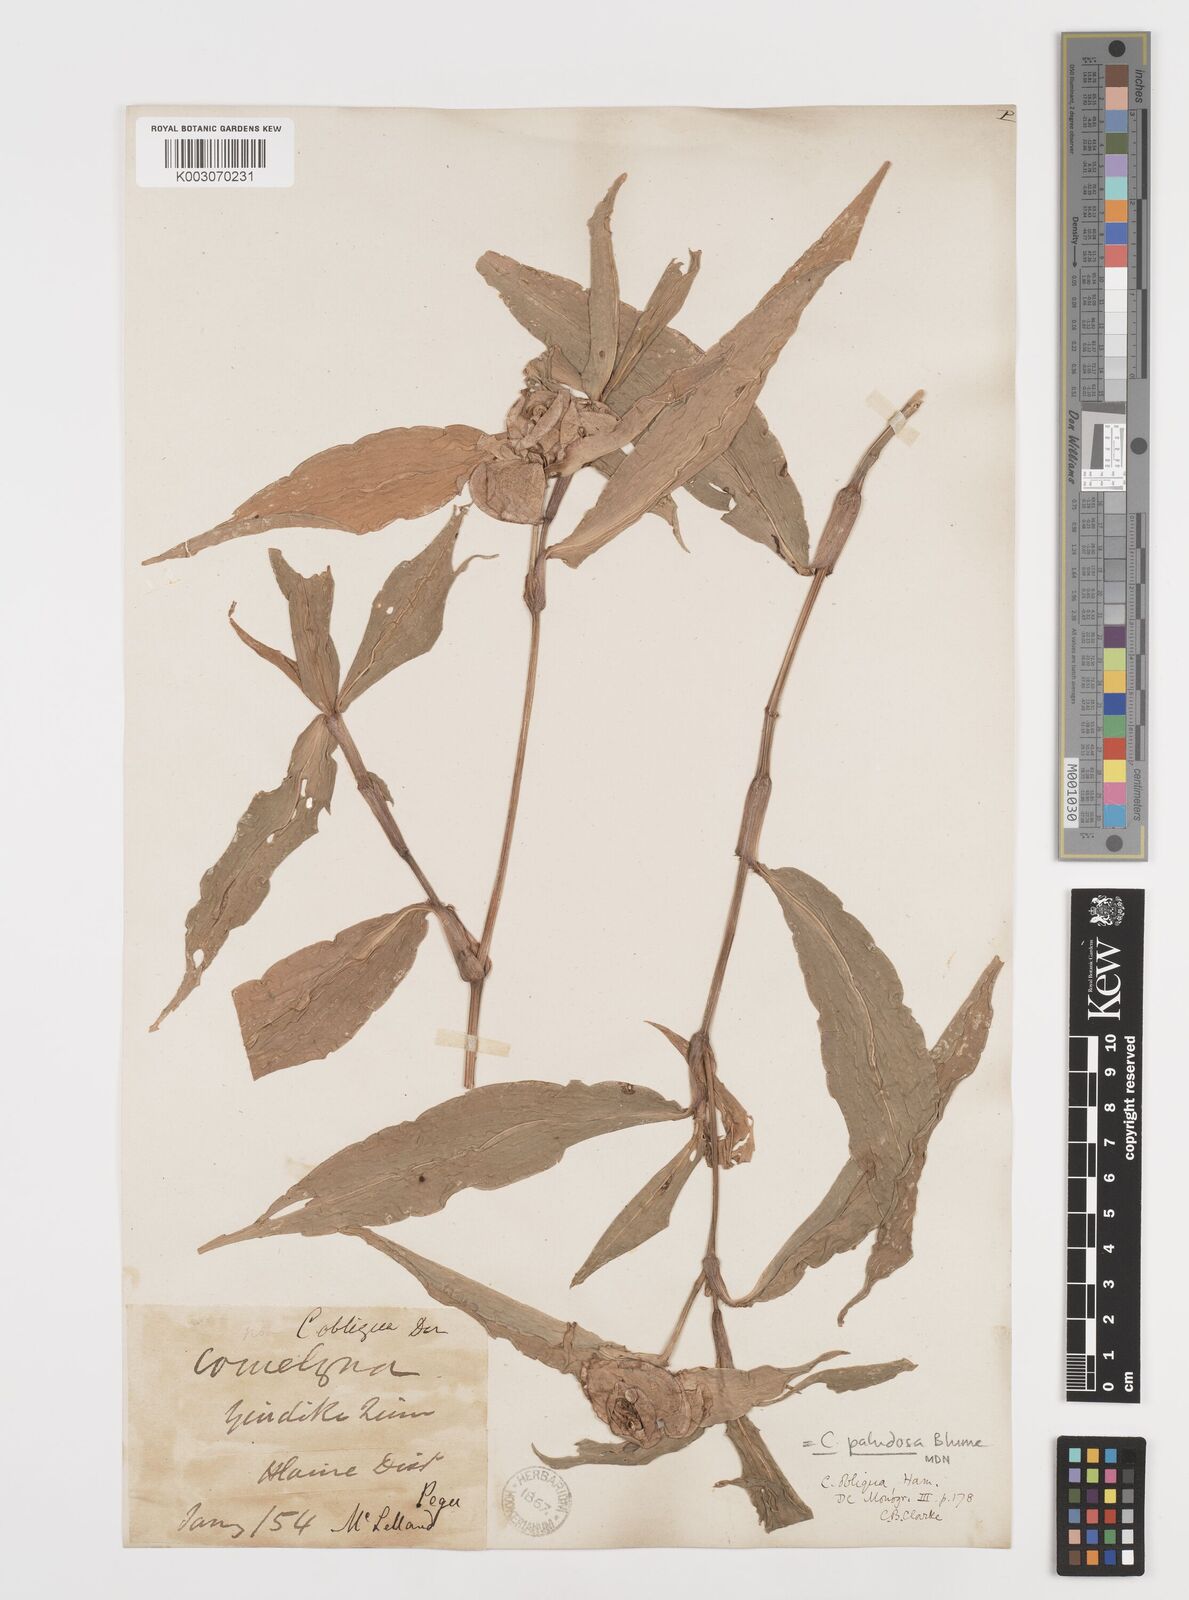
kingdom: Plantae
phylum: Tracheophyta
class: Liliopsida
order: Commelinales
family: Commelinaceae
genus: Commelina
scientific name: Commelina paludosa
